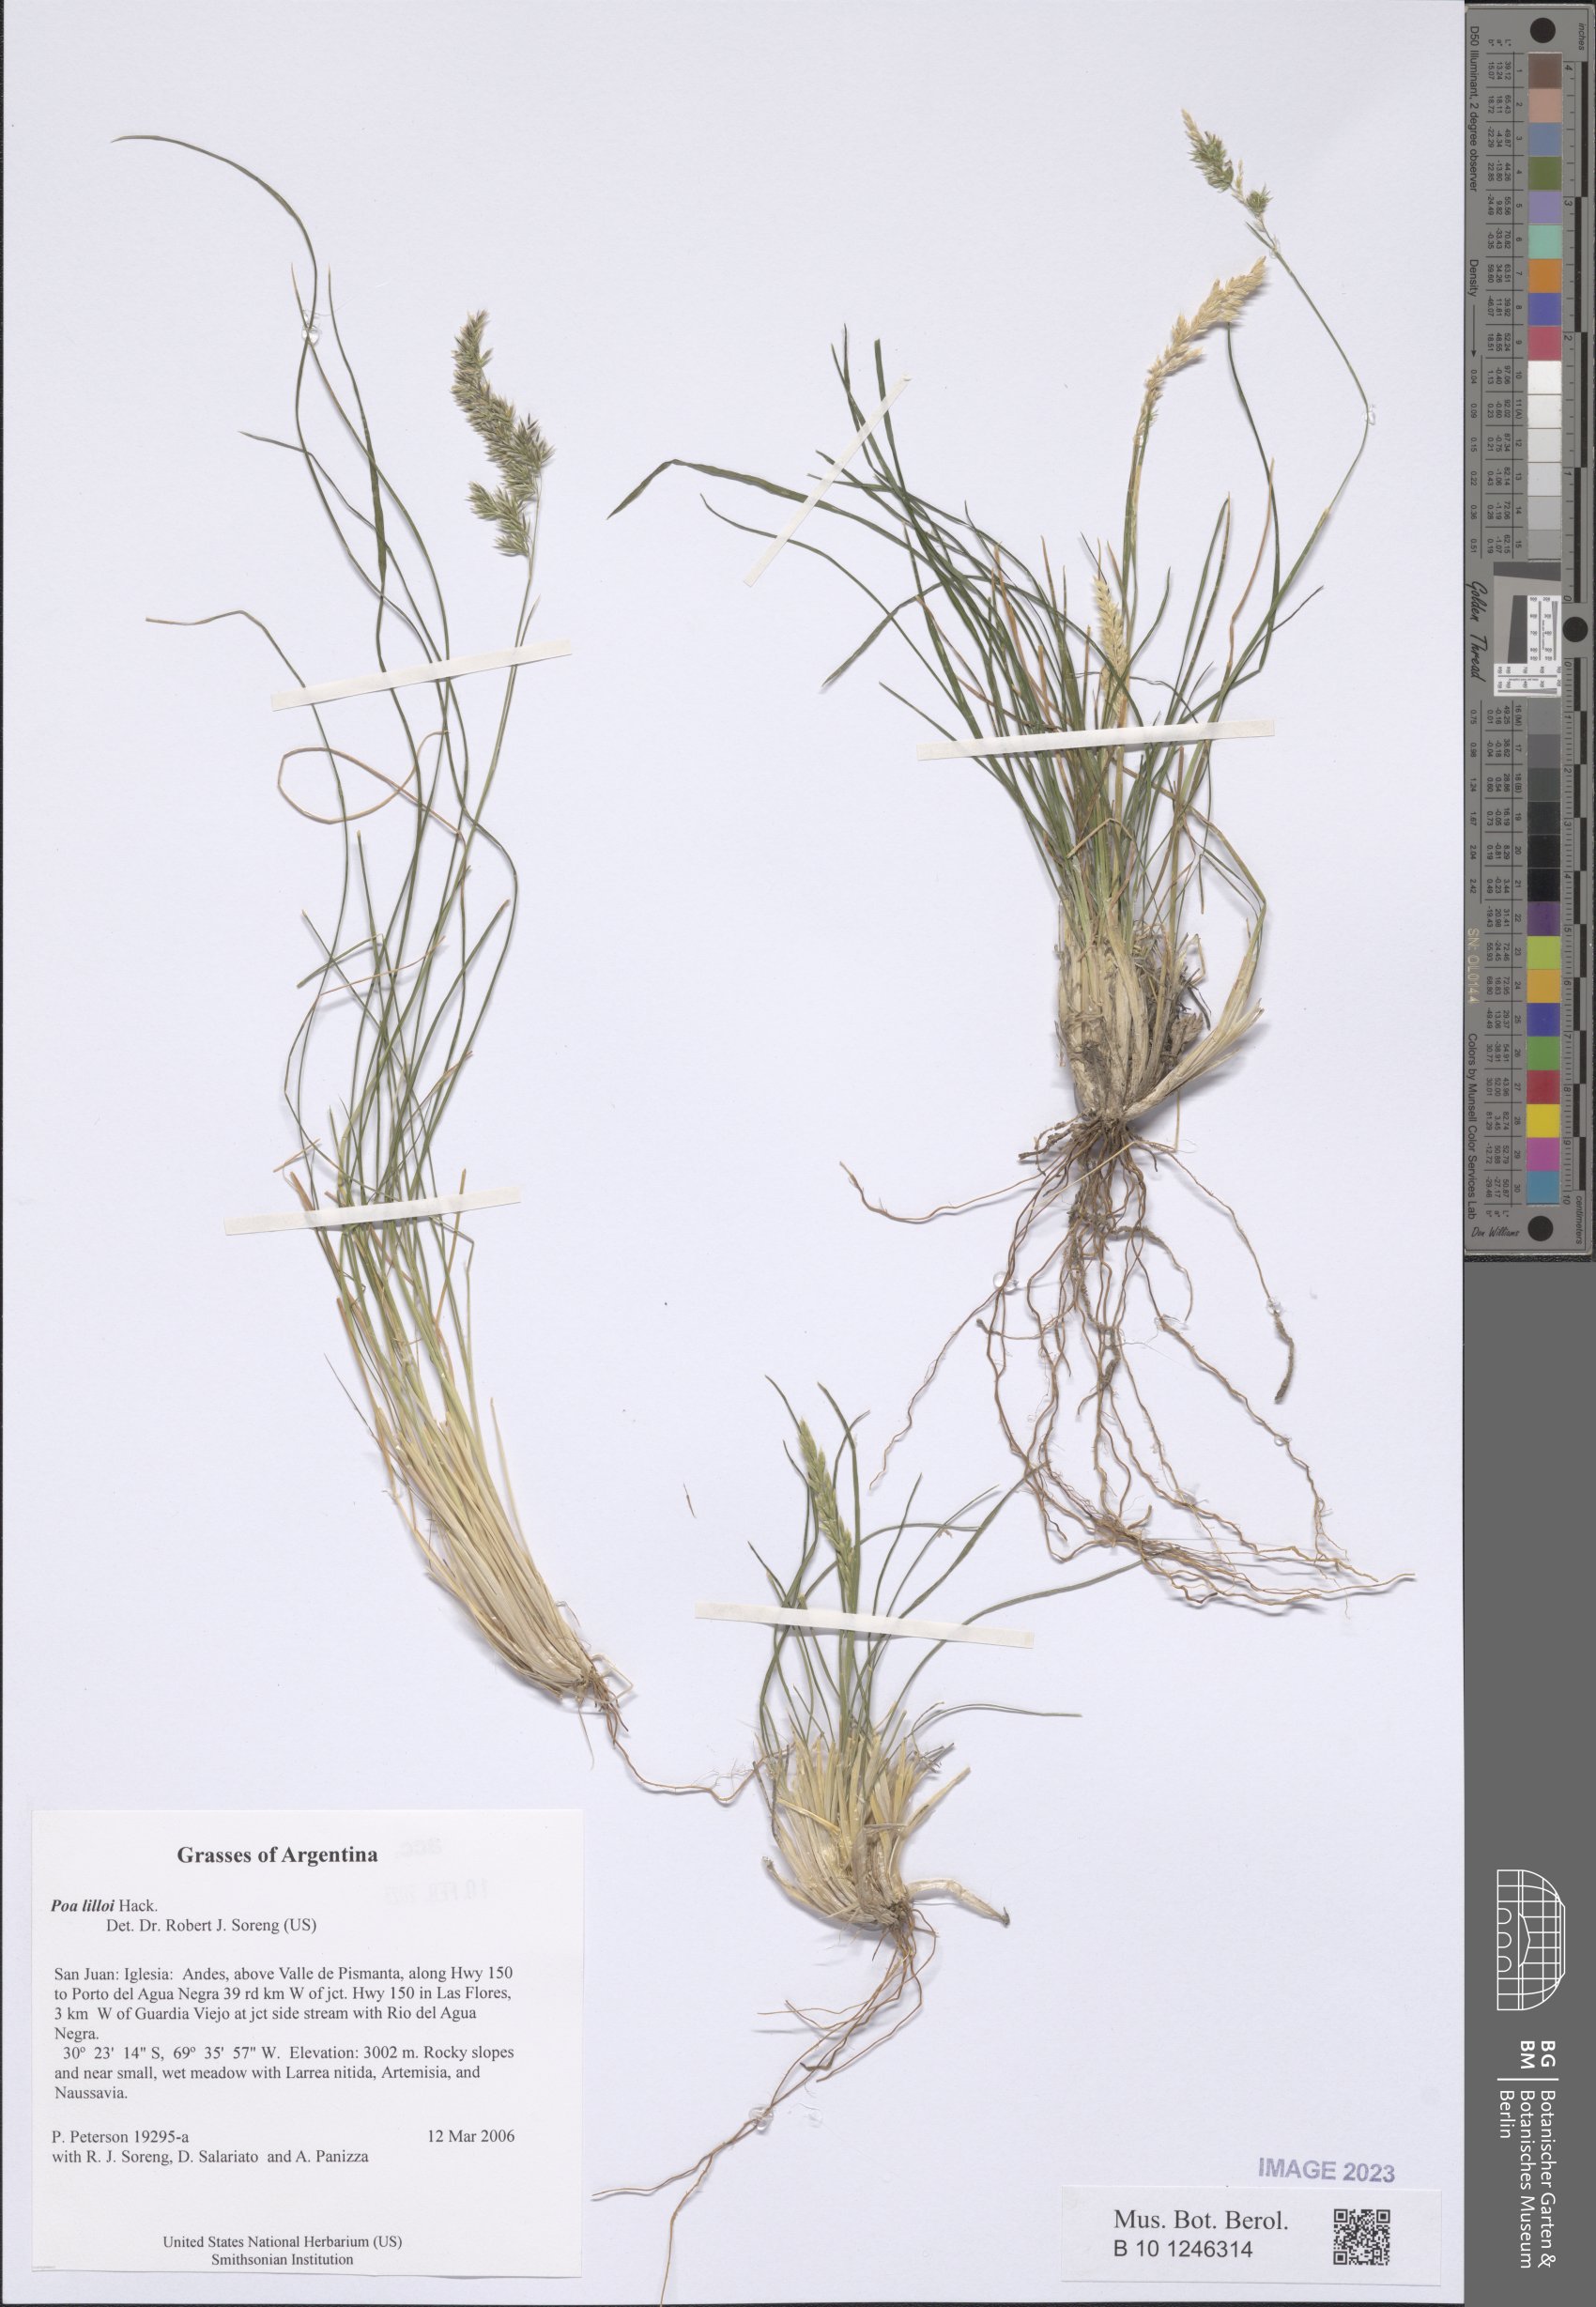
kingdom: Plantae
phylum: Tracheophyta
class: Liliopsida
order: Poales
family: Poaceae
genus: Poa
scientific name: Poa lilloi
